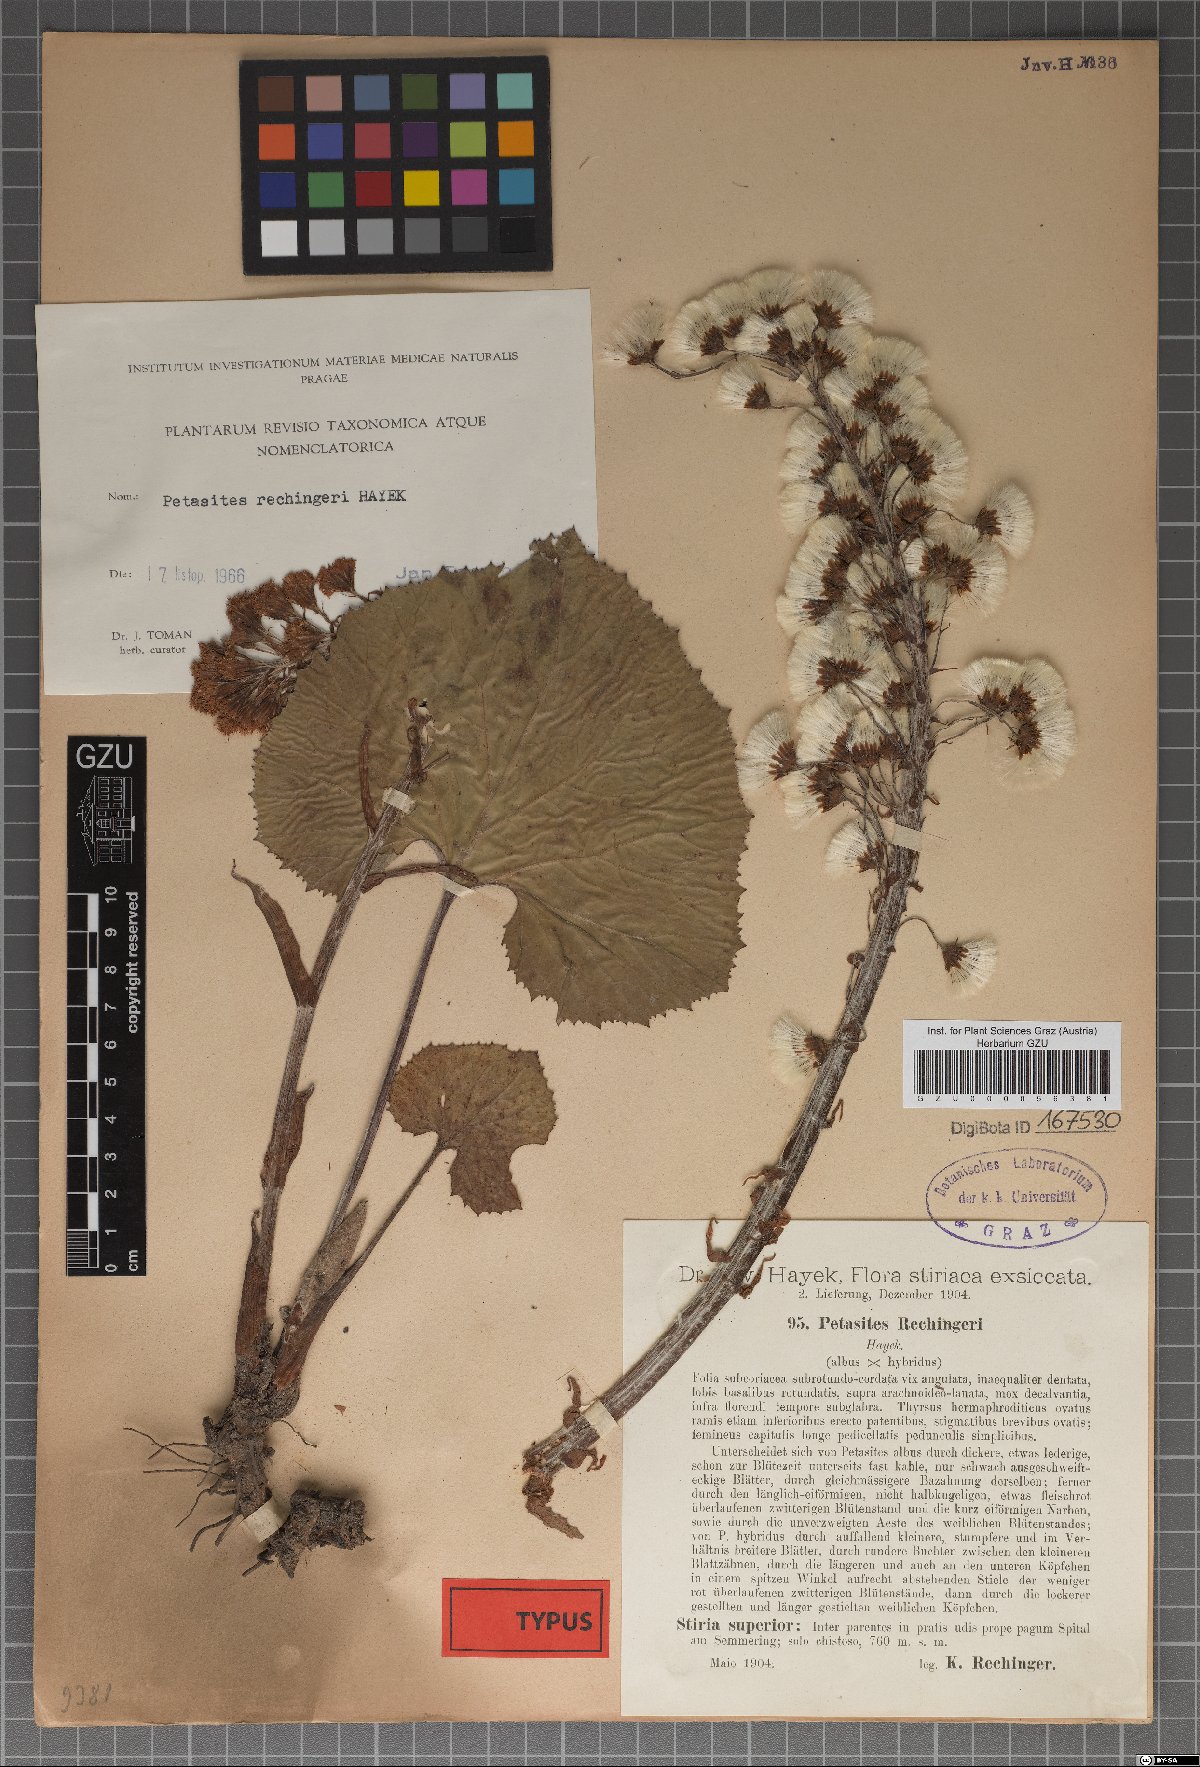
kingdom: Plantae
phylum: Tracheophyta
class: Magnoliopsida
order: Asterales
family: Asteraceae
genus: Petasites
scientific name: Petasites rechingeri
